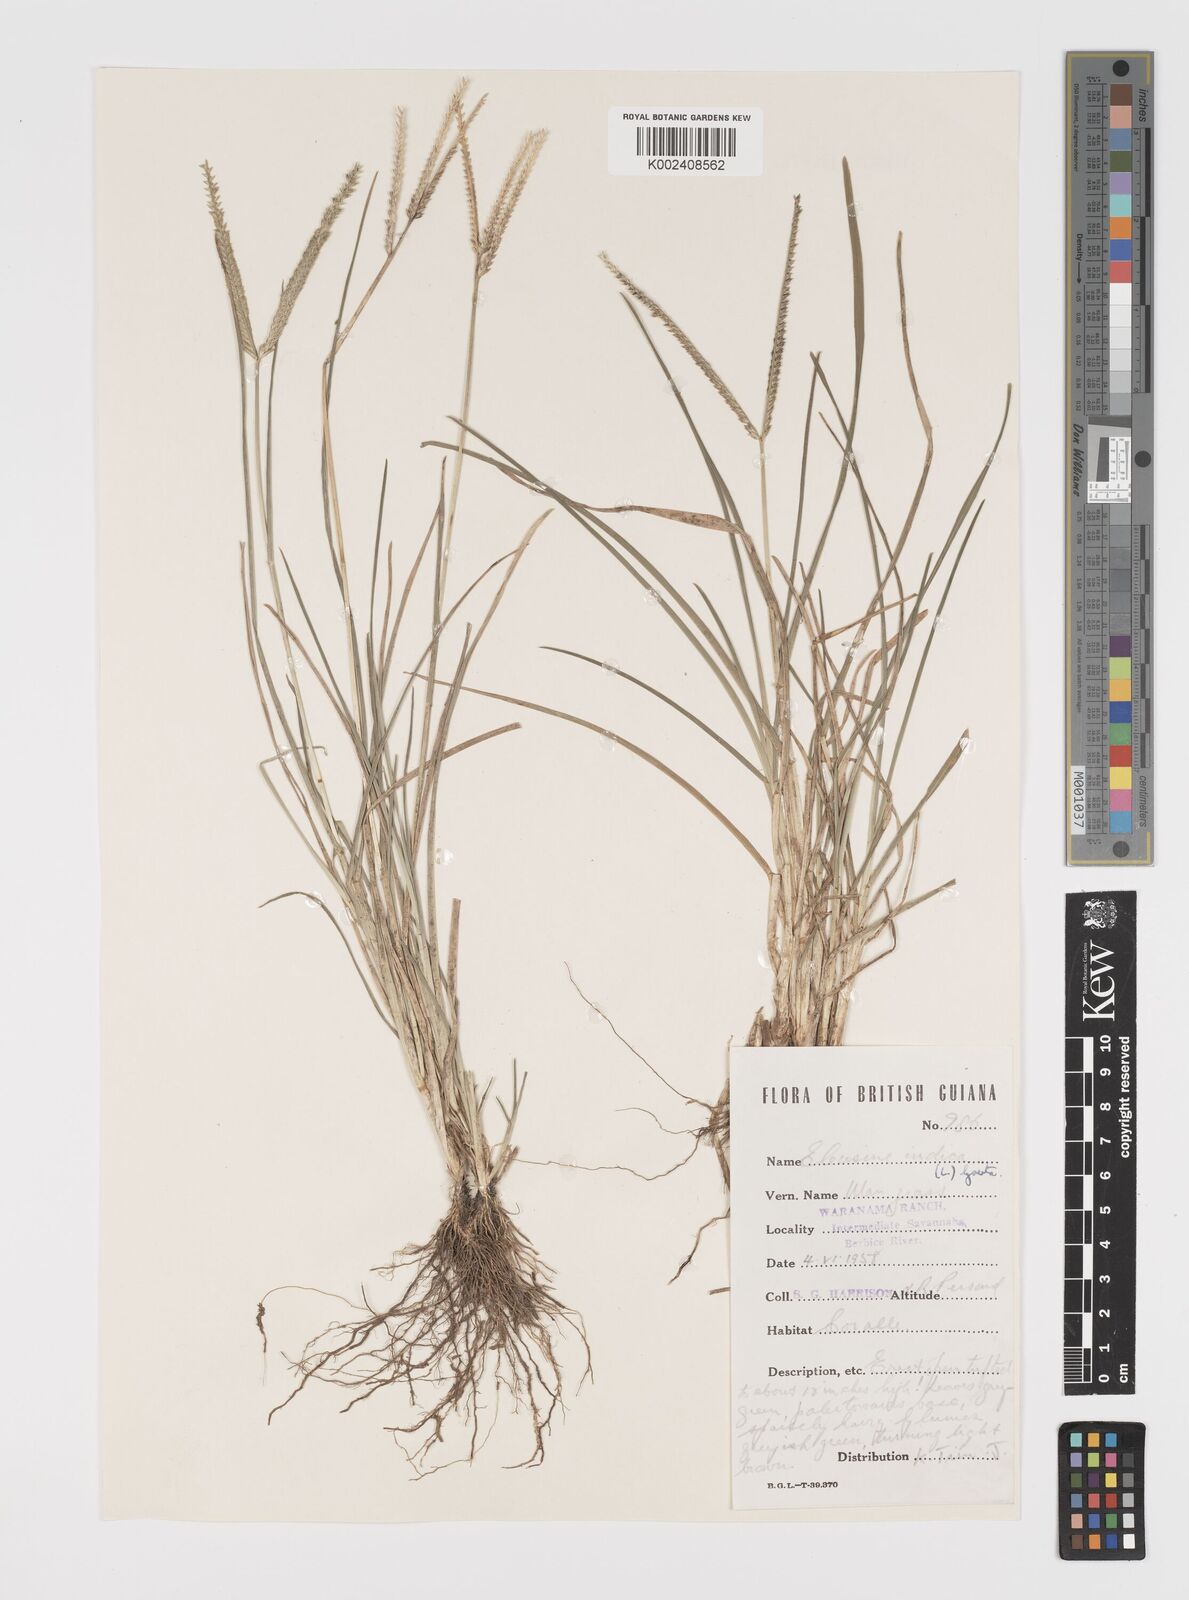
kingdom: Plantae
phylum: Tracheophyta
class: Liliopsida
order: Poales
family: Poaceae
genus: Eleusine
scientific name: Eleusine indica
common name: Yard-grass
